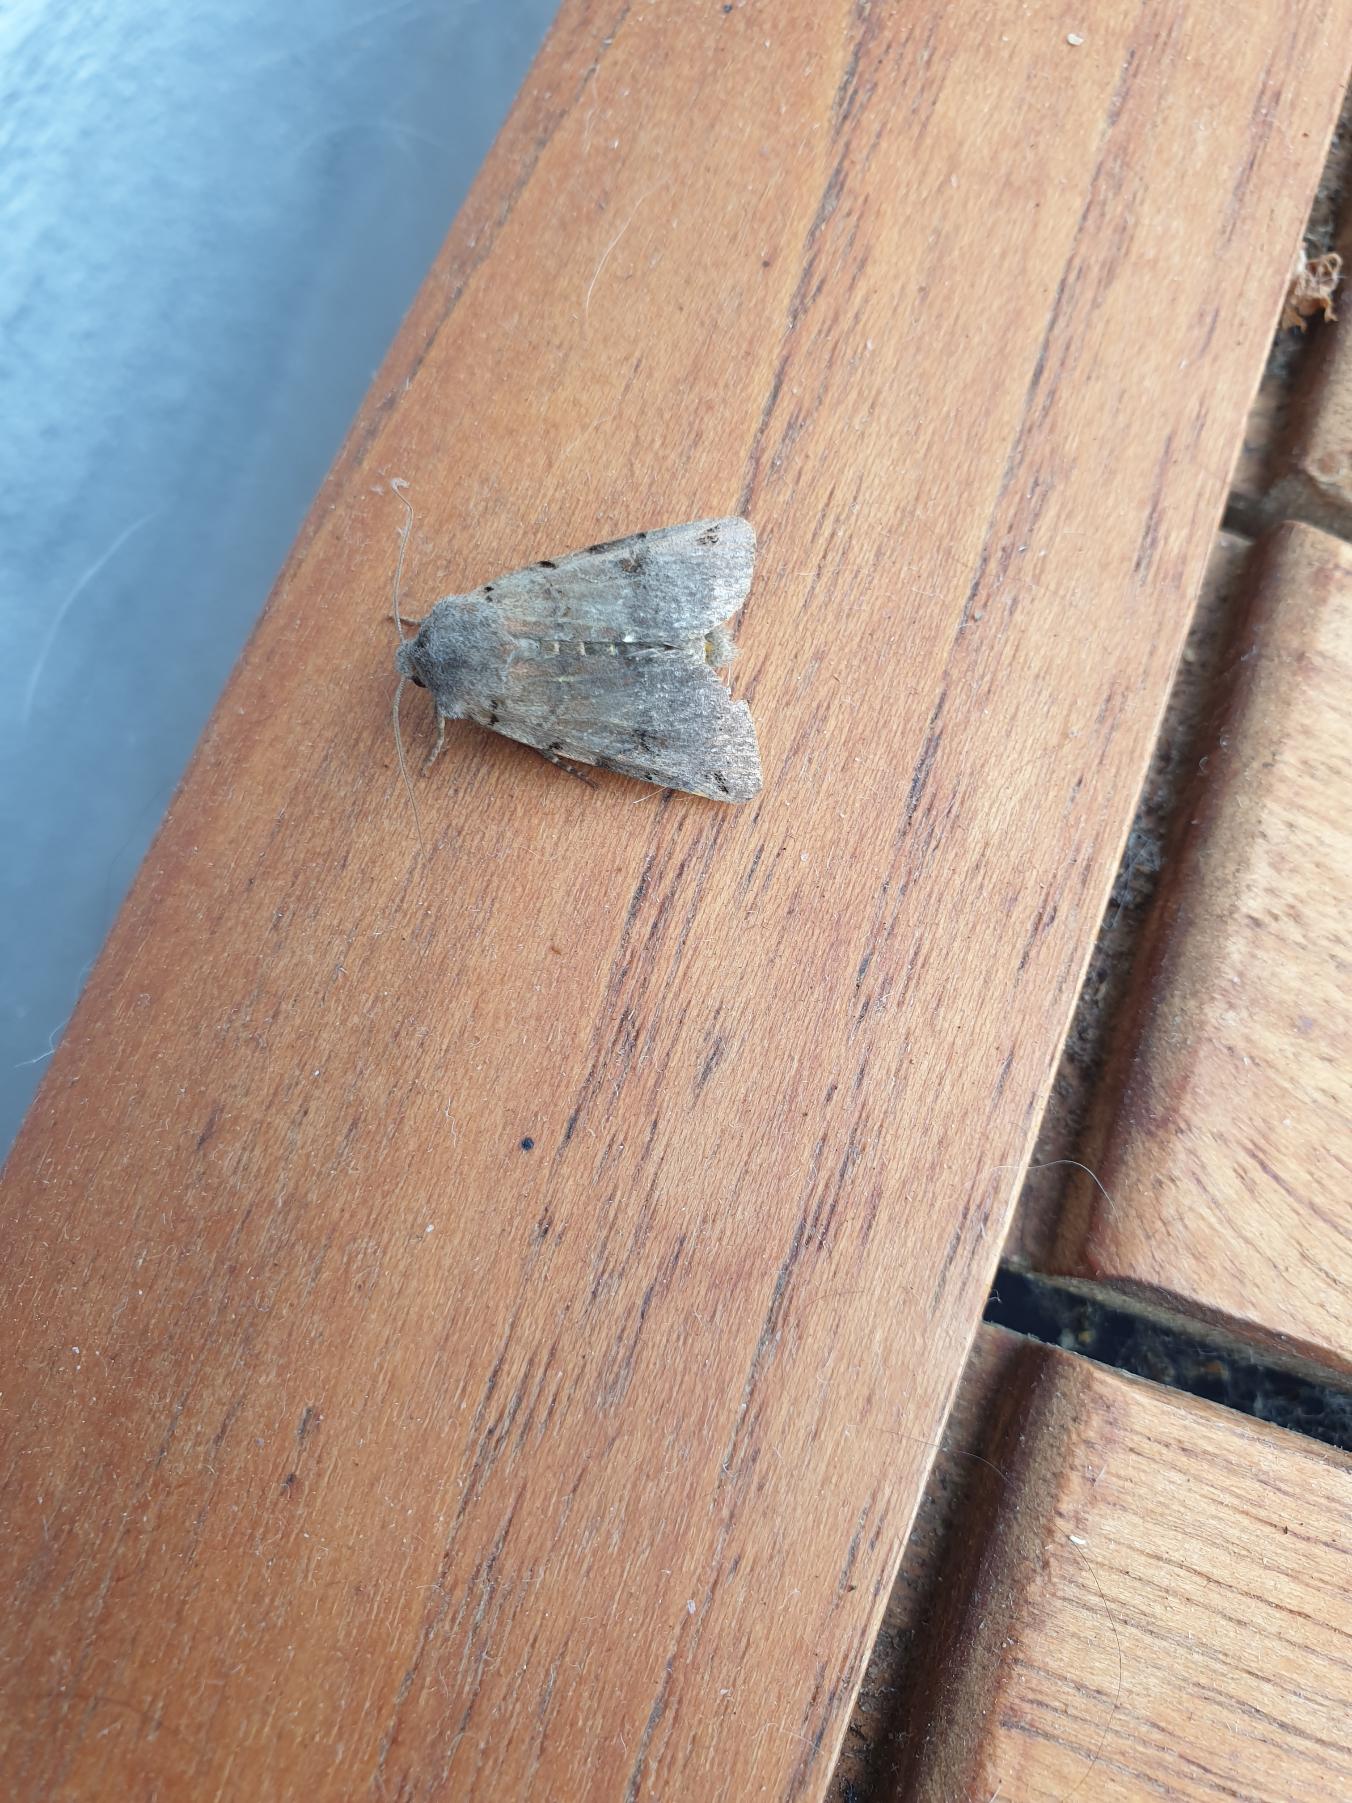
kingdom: Animalia
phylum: Arthropoda
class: Insecta
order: Lepidoptera
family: Noctuidae
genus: Agrochola
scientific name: Agrochola litura
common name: Kantplettet jordfarveugle
